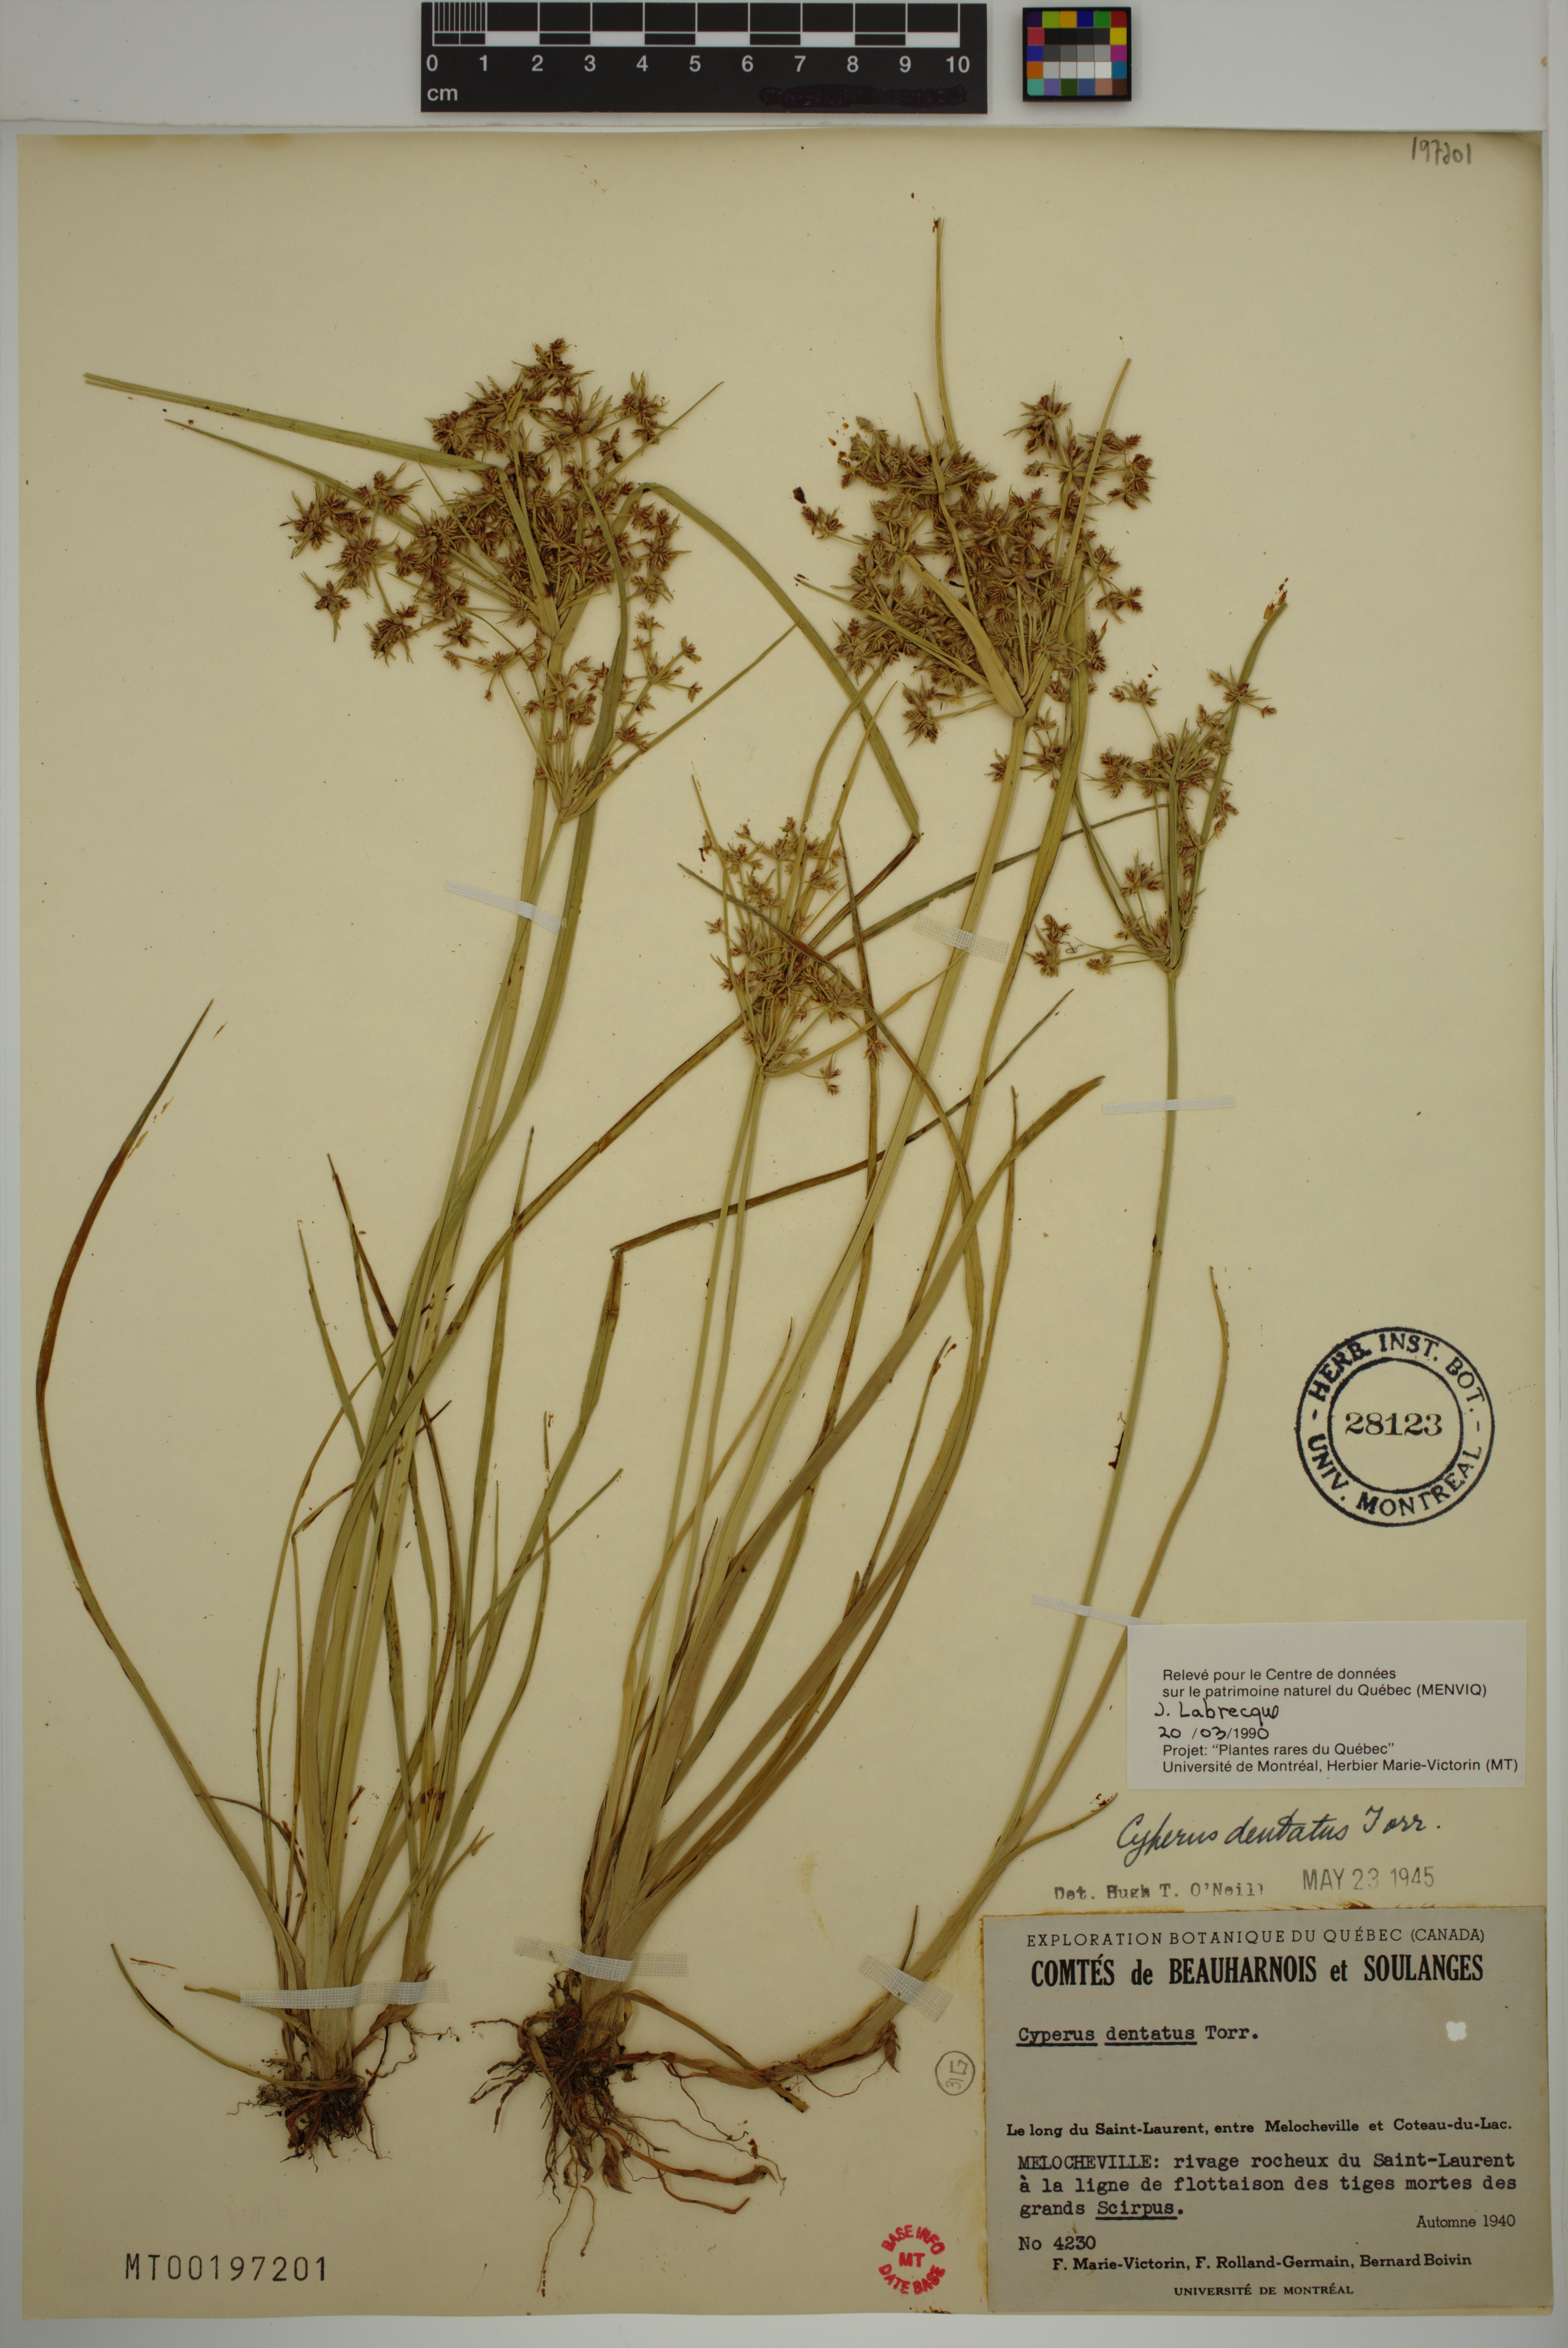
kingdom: Plantae
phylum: Tracheophyta
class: Liliopsida
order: Poales
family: Cyperaceae
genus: Cyperus
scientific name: Cyperus dentatus
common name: Dentate umbrella sedge
